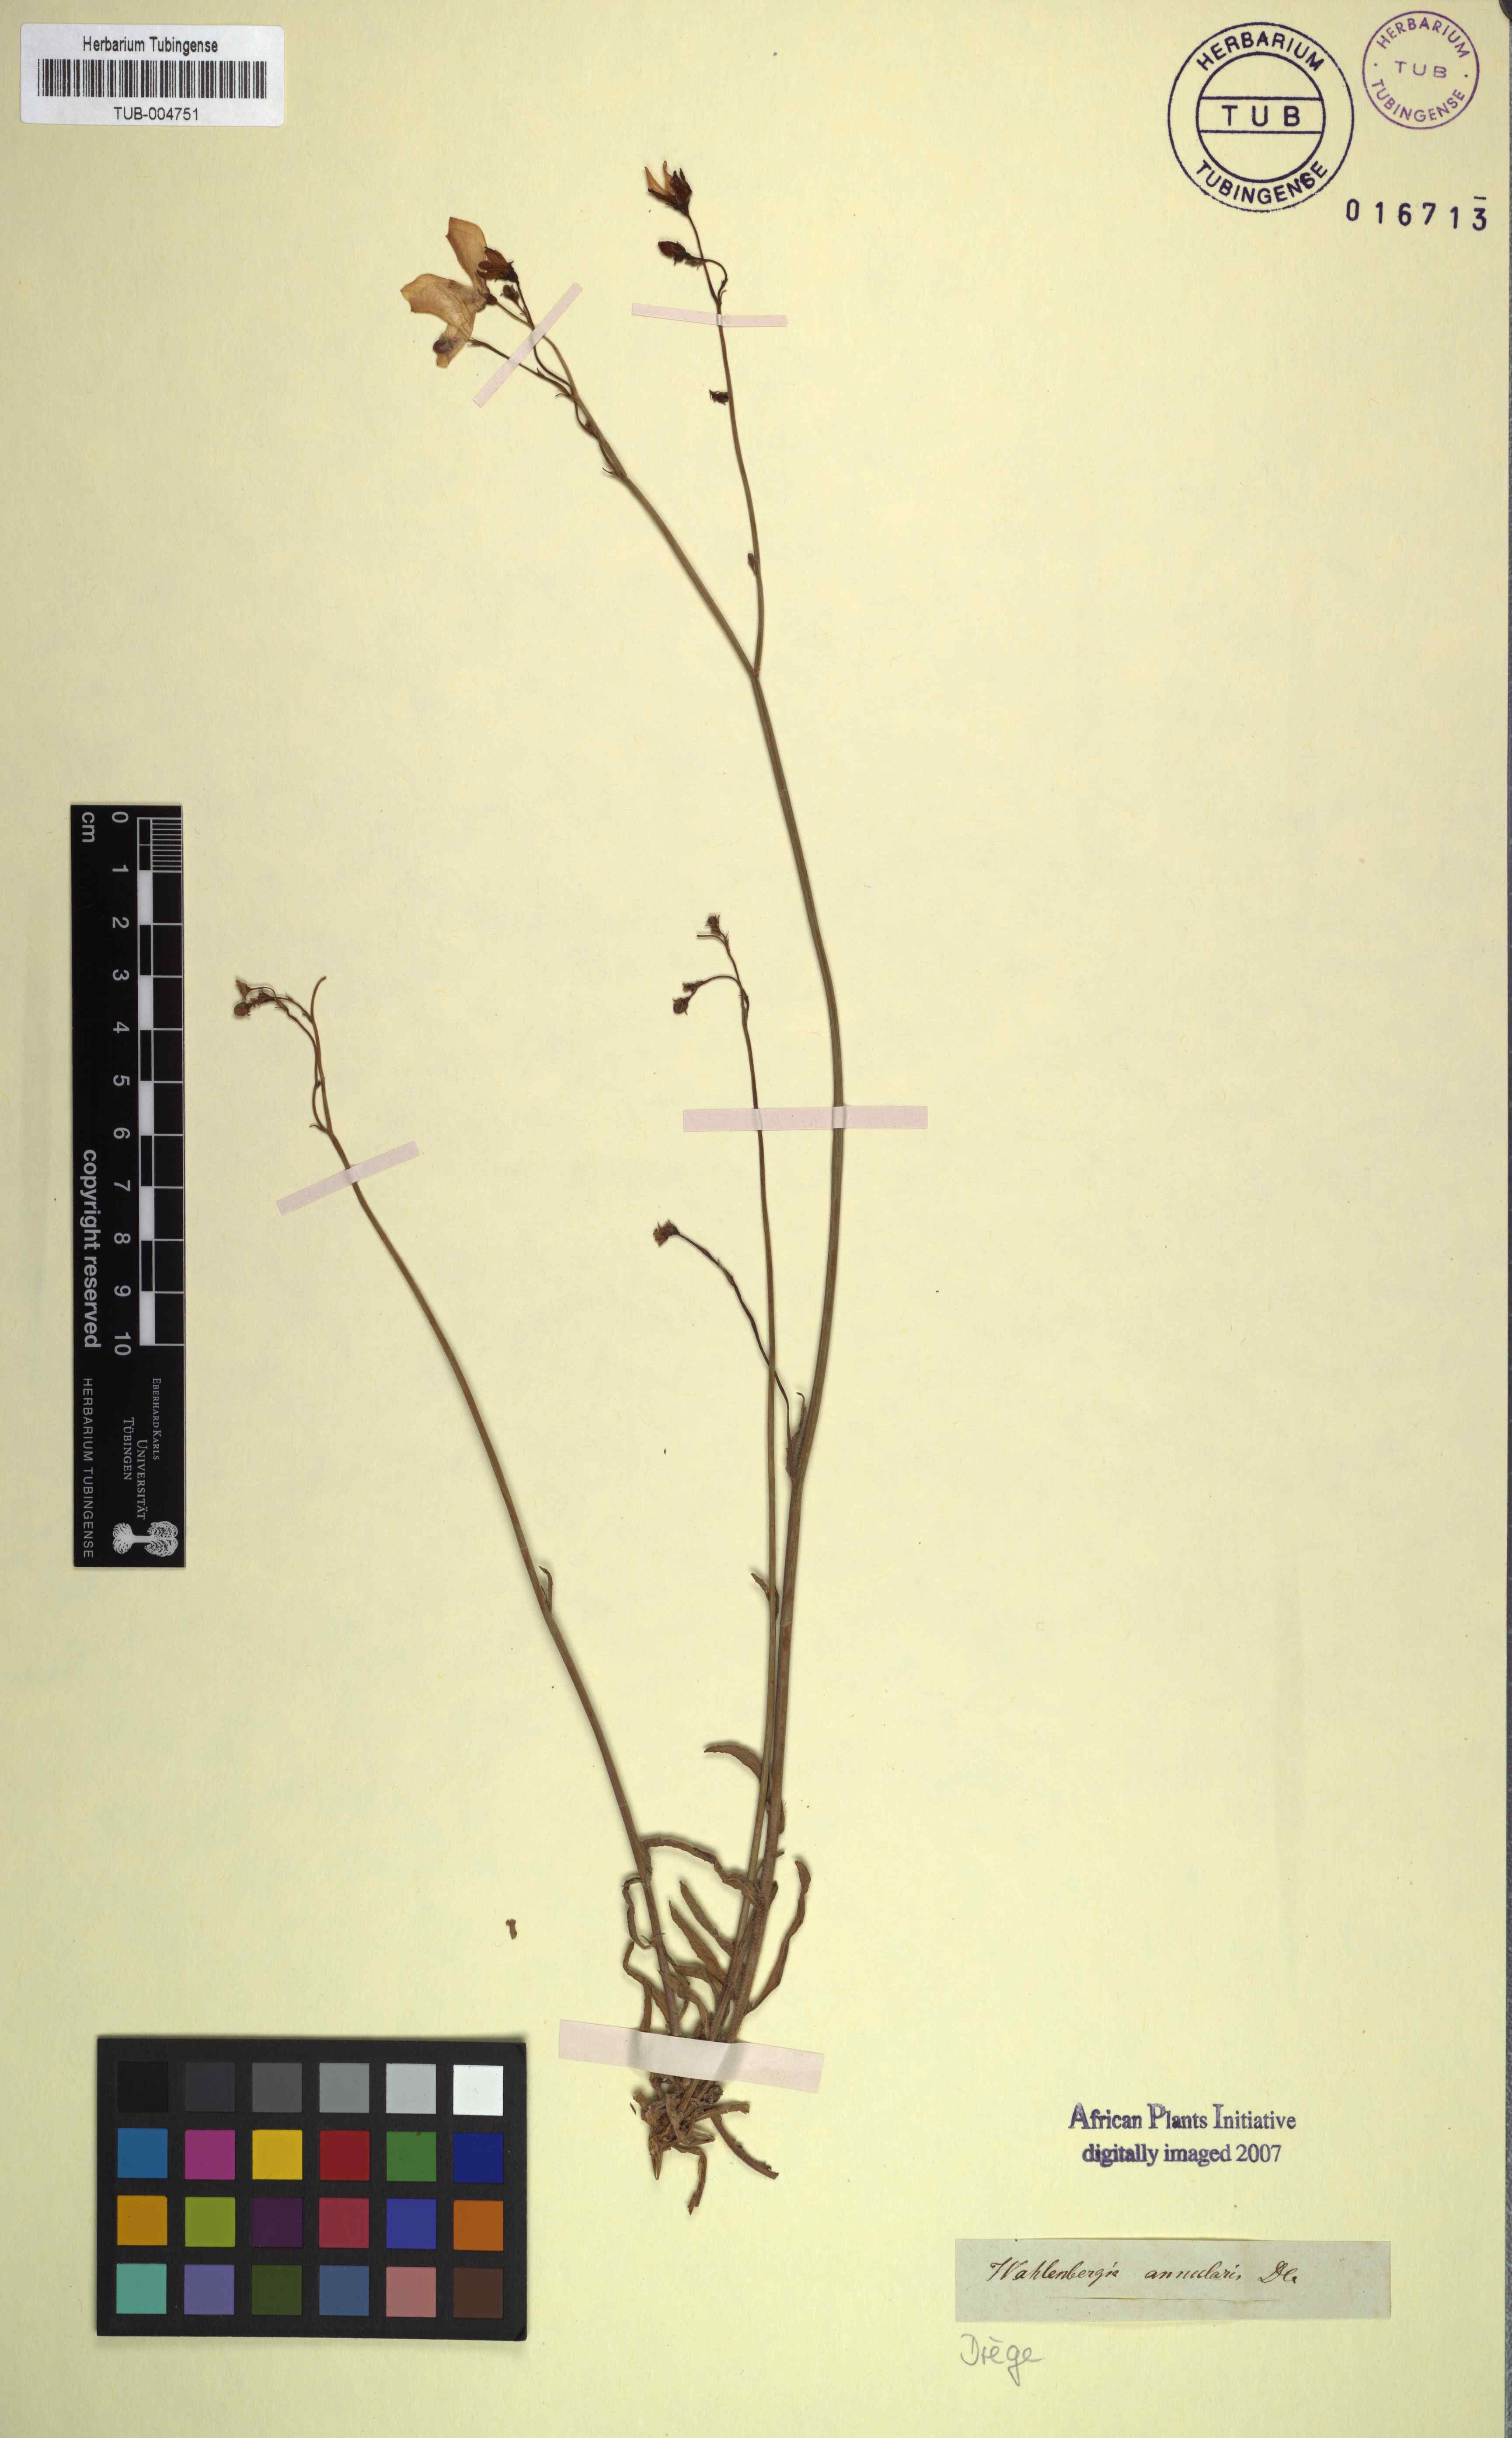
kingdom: Plantae
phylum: Tracheophyta
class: Magnoliopsida
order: Asterales
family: Campanulaceae
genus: Wahlenbergia
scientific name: Wahlenbergia annularis
